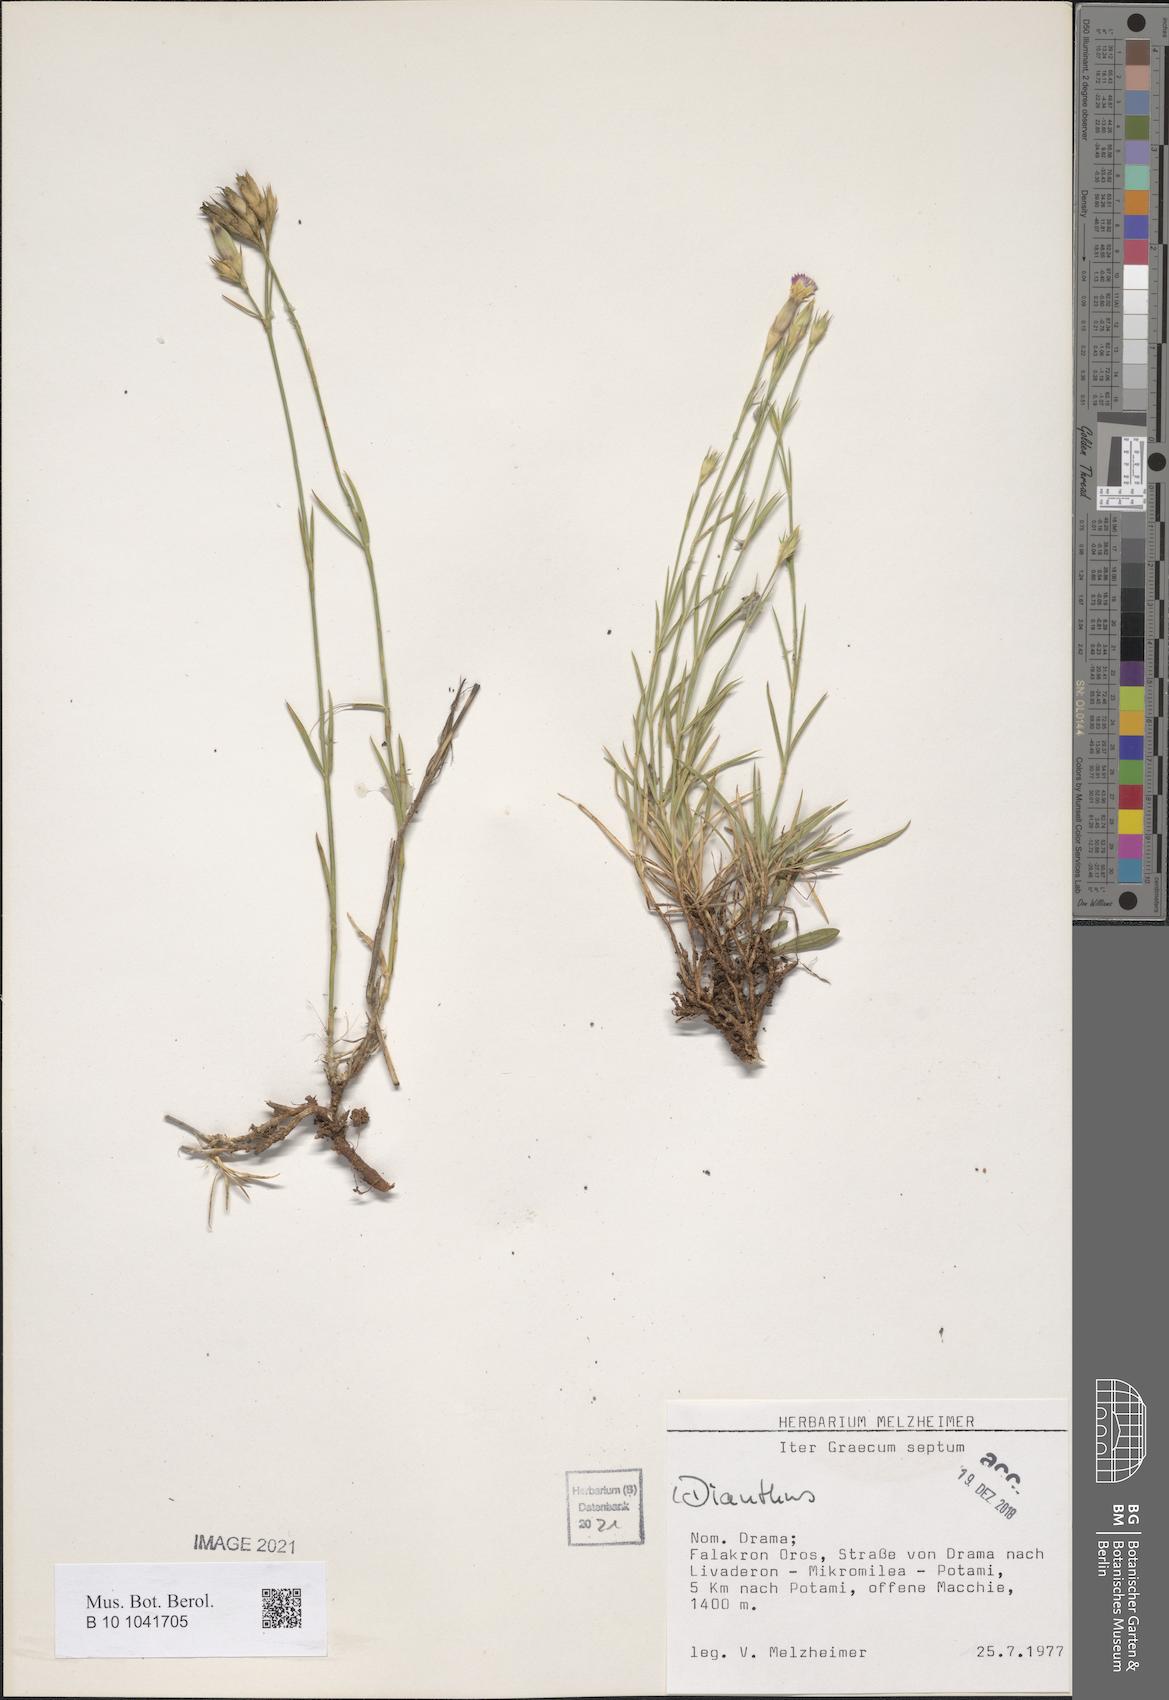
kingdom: Plantae
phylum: Tracheophyta
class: Magnoliopsida
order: Caryophyllales
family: Caryophyllaceae
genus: Dianthus
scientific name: Dianthus
